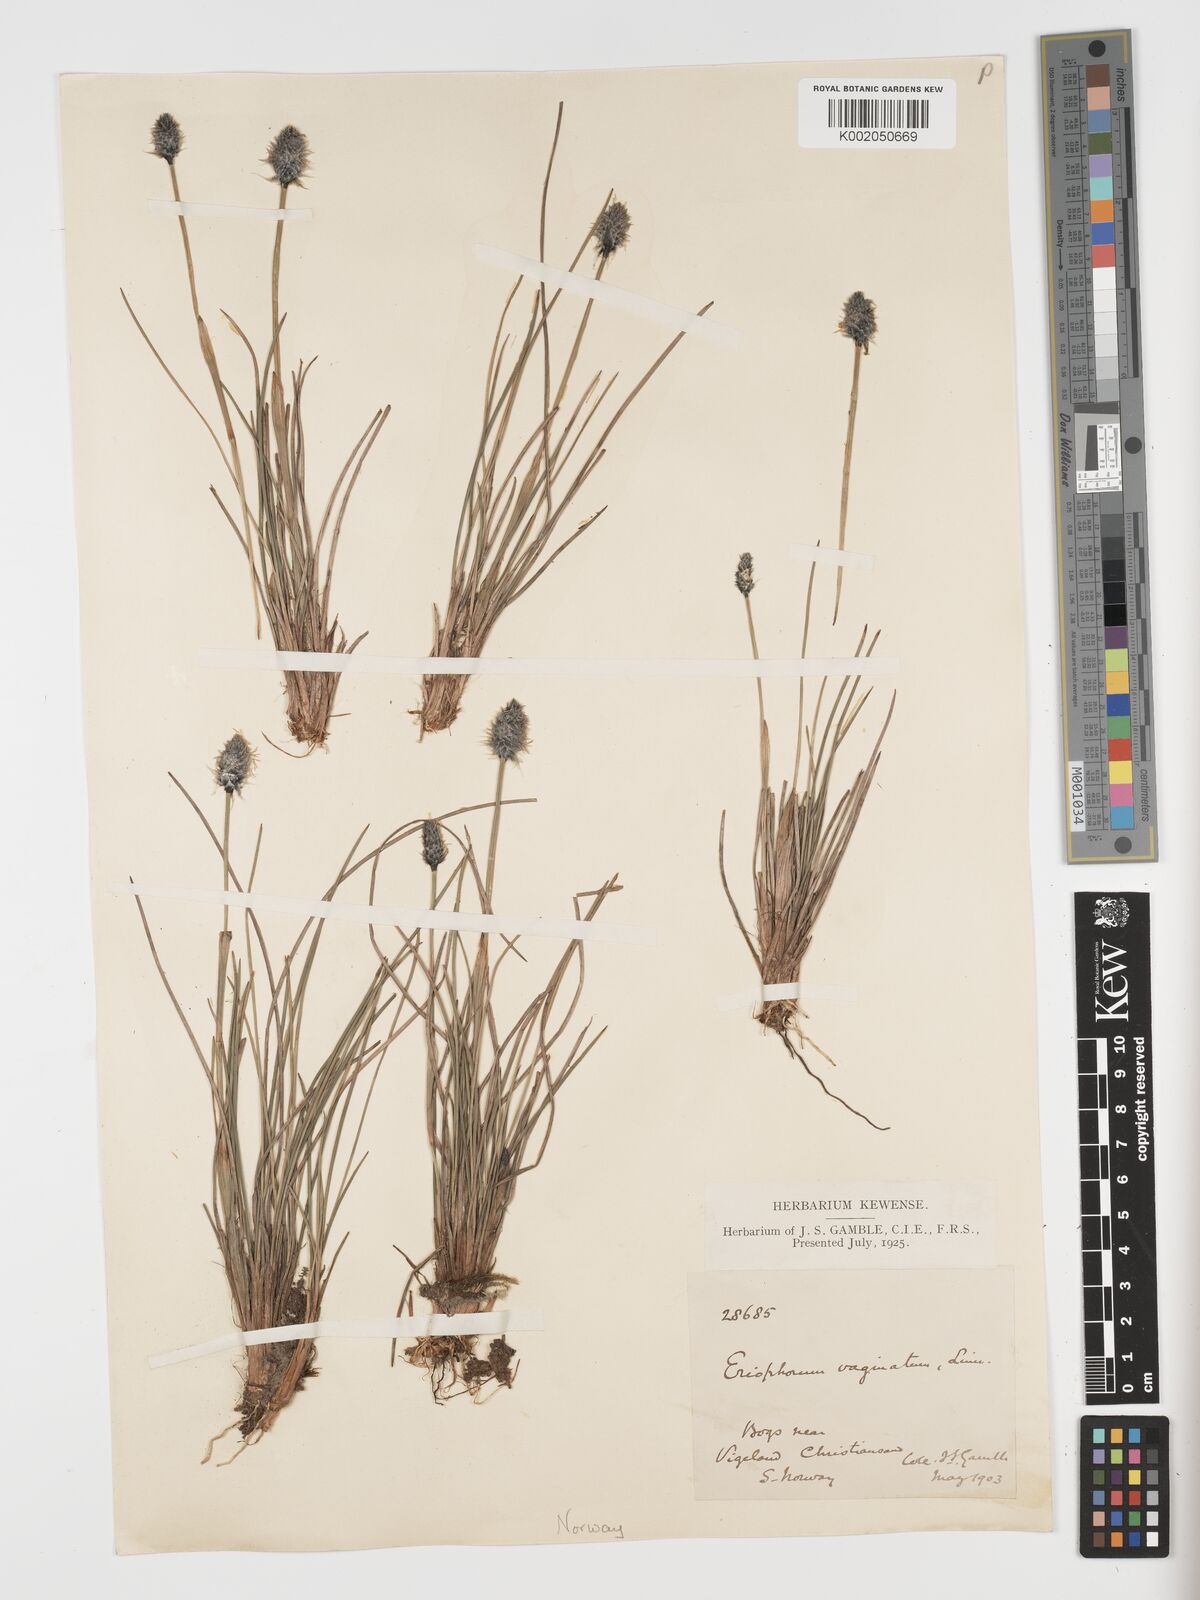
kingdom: Plantae
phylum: Tracheophyta
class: Liliopsida
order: Poales
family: Cyperaceae
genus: Eriophorum
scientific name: Eriophorum vaginatum
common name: Hare's-tail cottongrass
